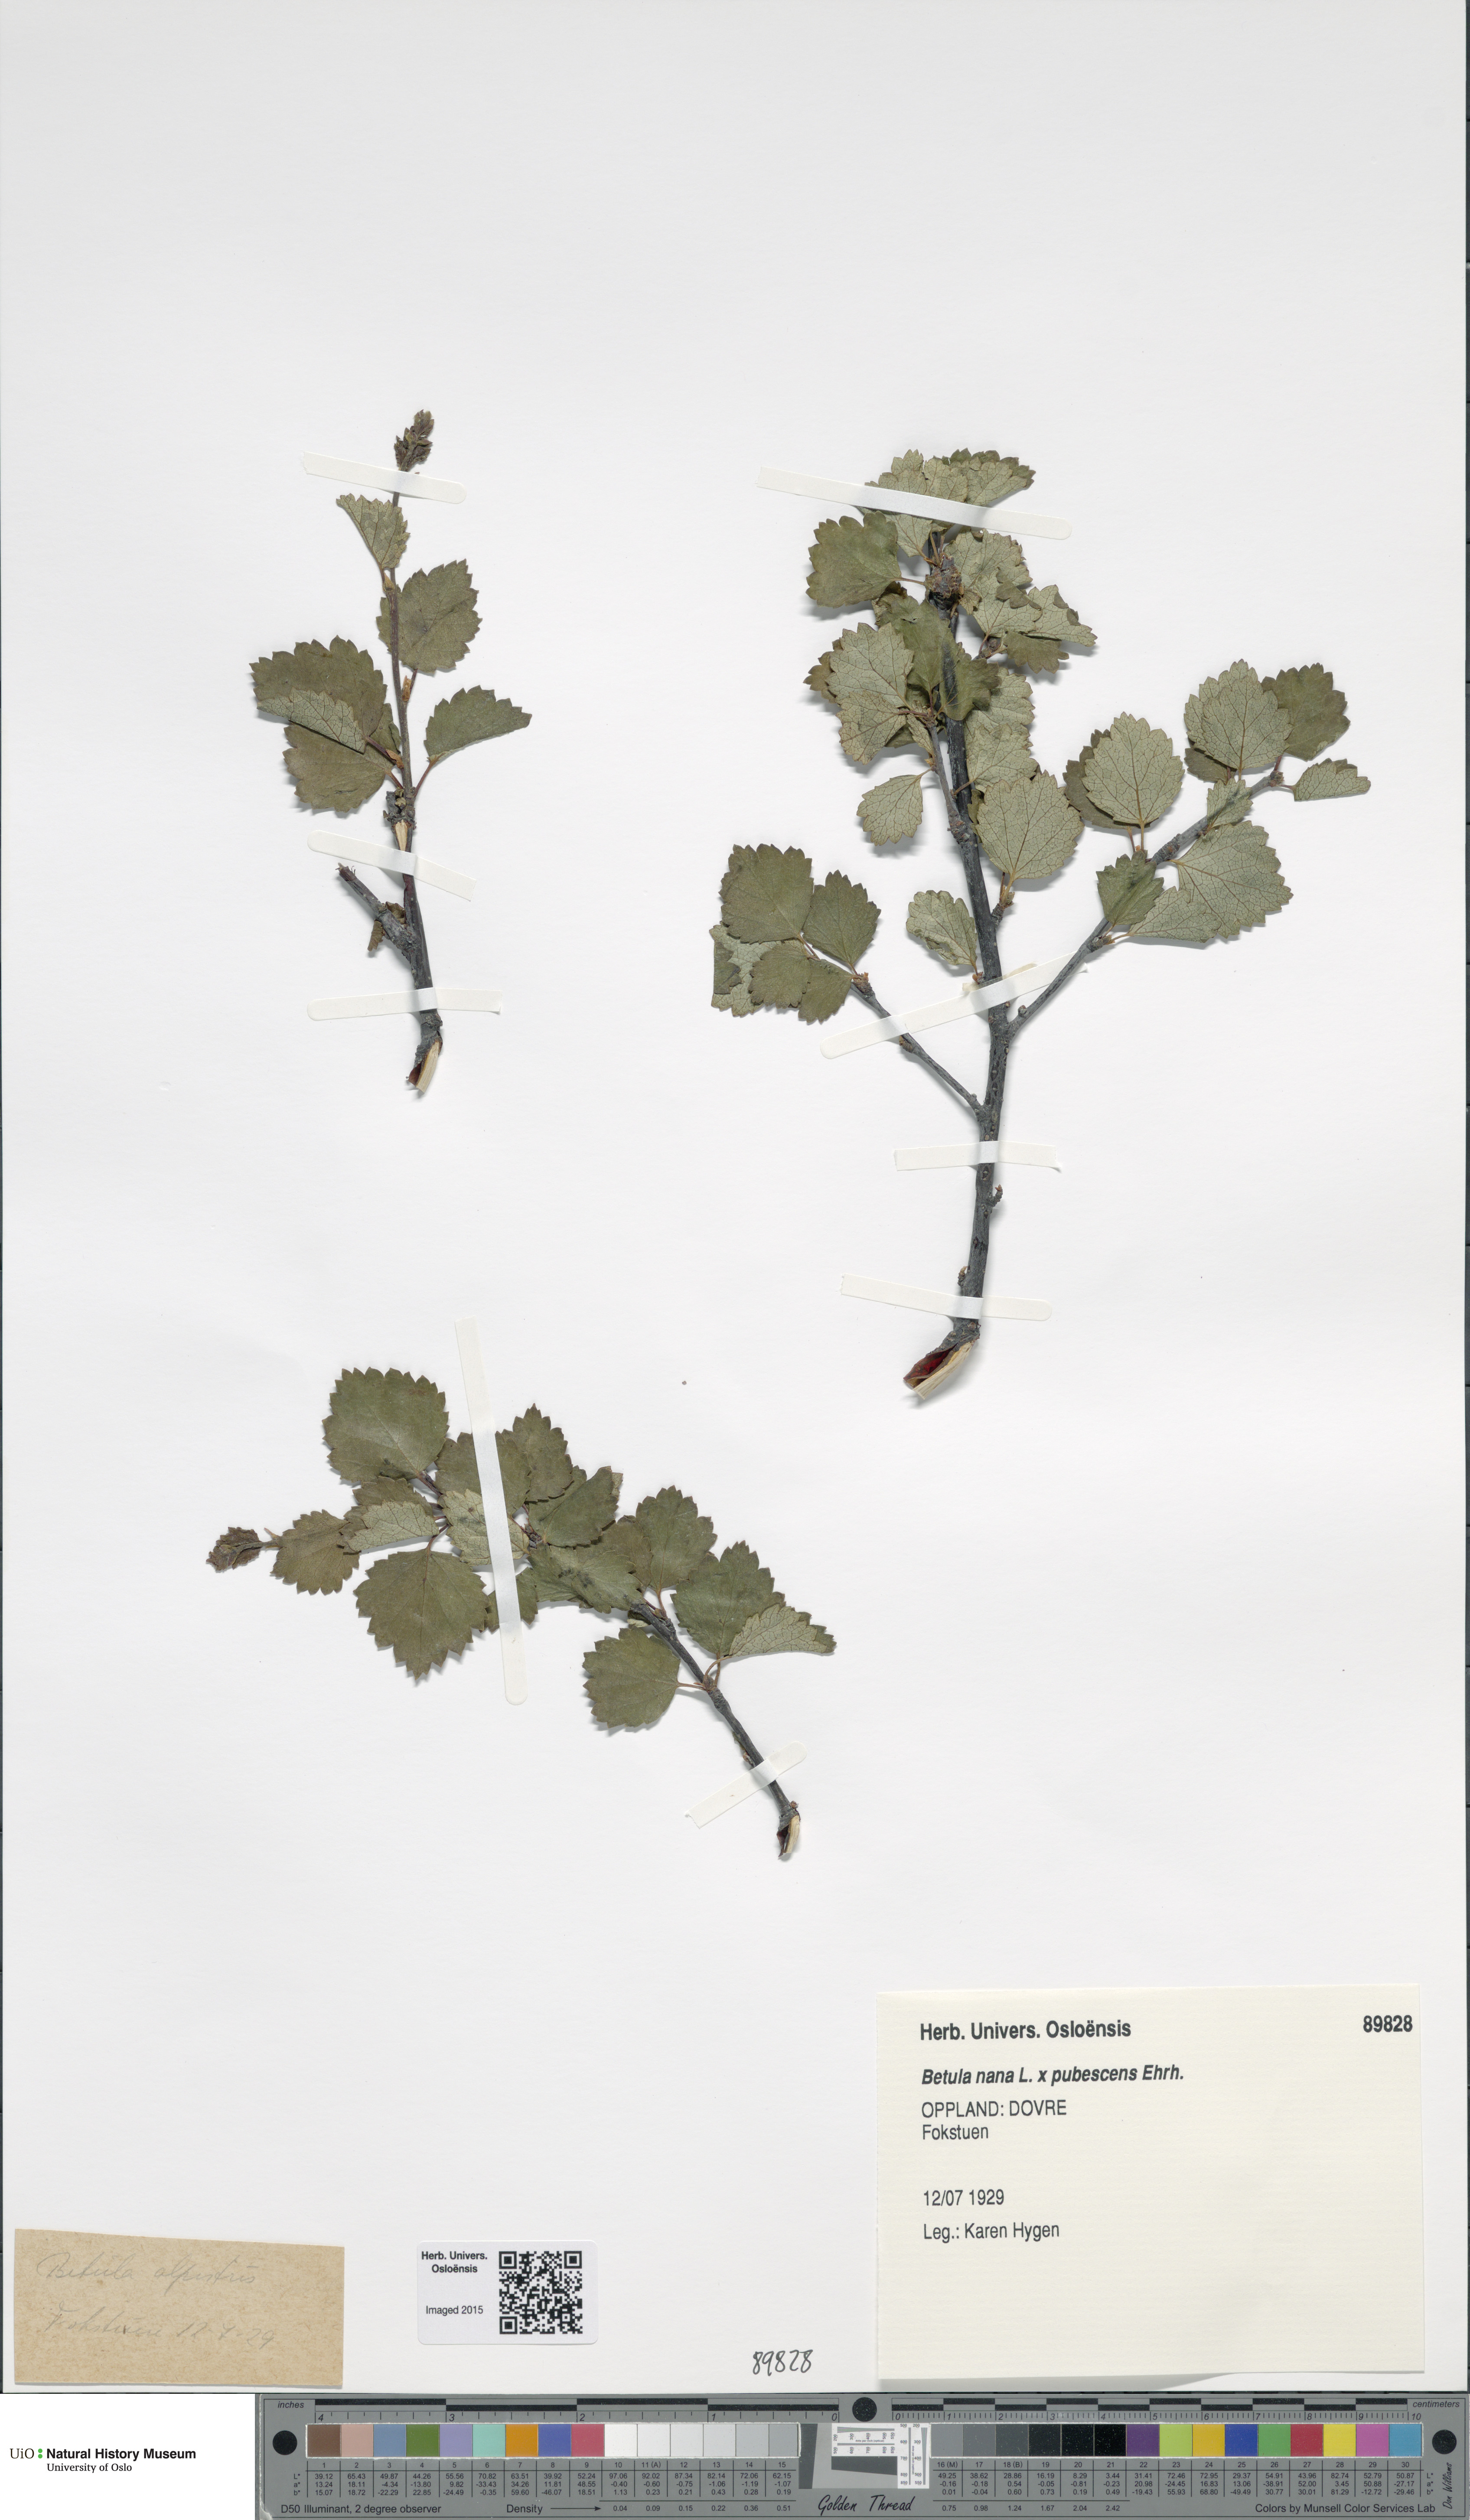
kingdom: Plantae
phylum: Tracheophyta
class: Magnoliopsida
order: Fagales
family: Betulaceae
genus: Betula
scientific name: Betula
